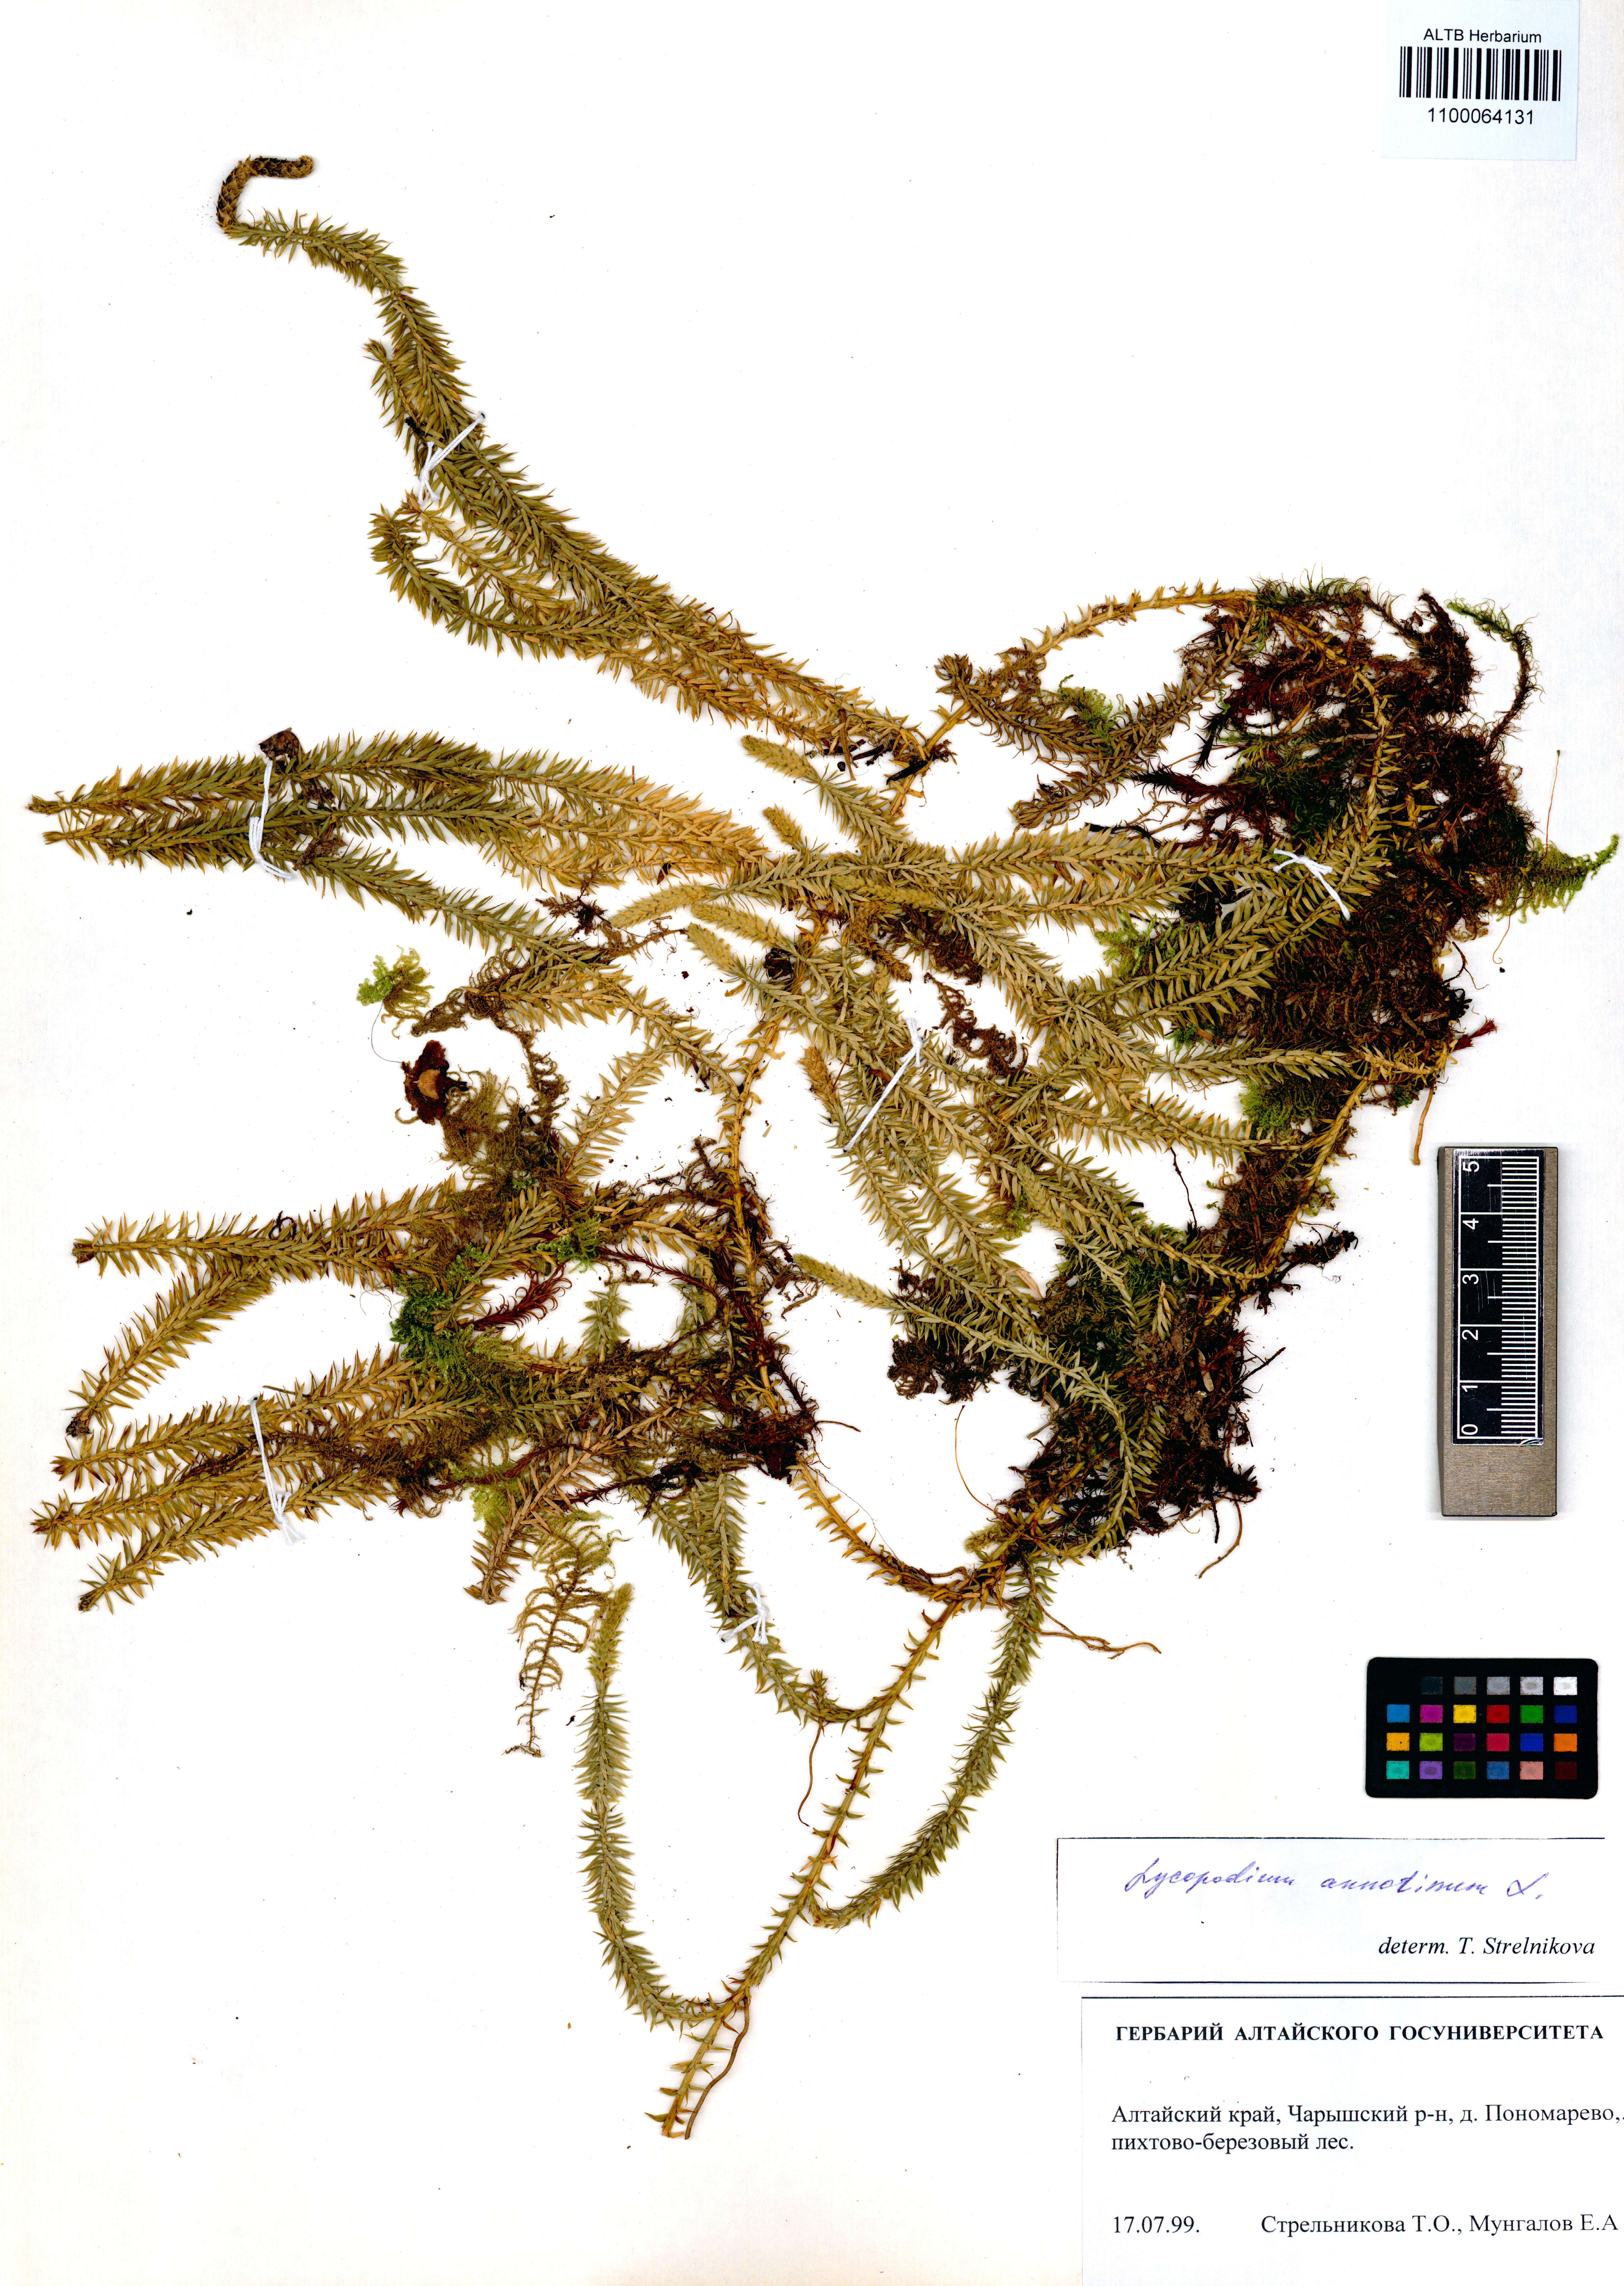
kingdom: Plantae
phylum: Tracheophyta
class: Lycopodiopsida
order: Lycopodiales
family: Lycopodiaceae
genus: Spinulum
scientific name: Spinulum annotinum
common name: Interrupted club-moss
